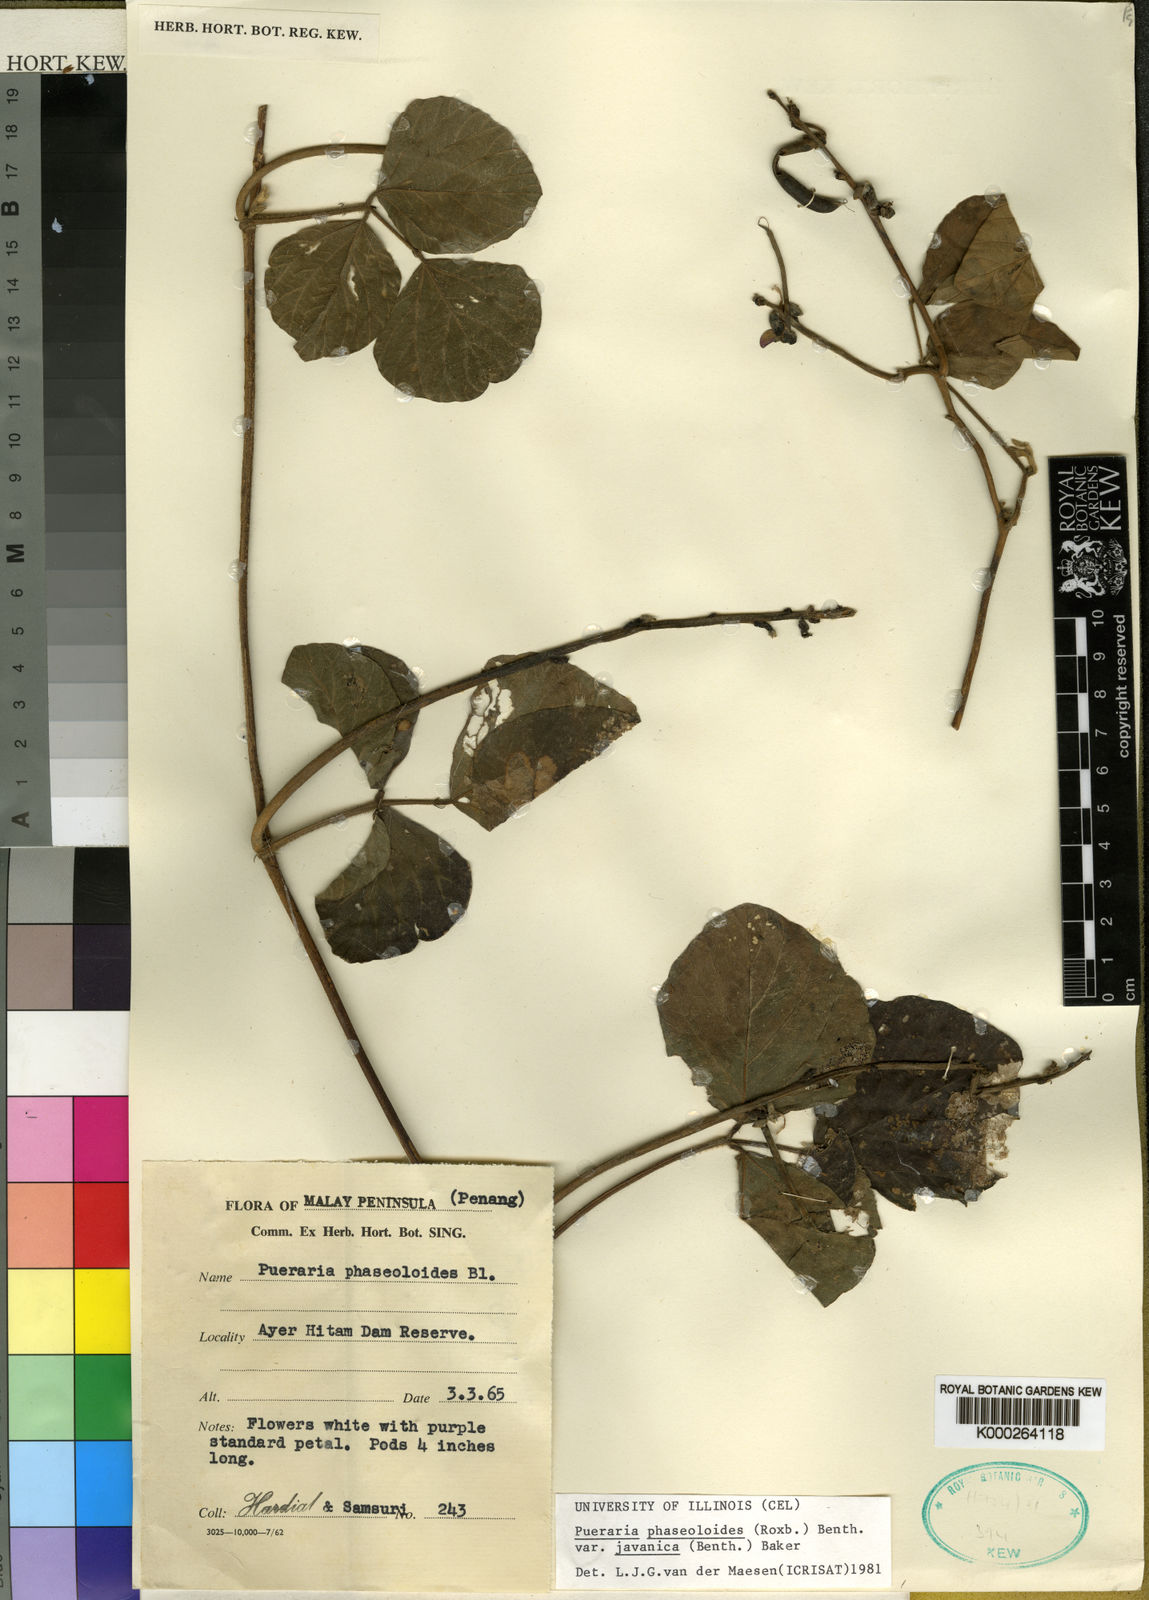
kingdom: Plantae
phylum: Tracheophyta
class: Magnoliopsida
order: Fabales
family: Fabaceae
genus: Neustanthus
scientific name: Neustanthus phaseoloides
